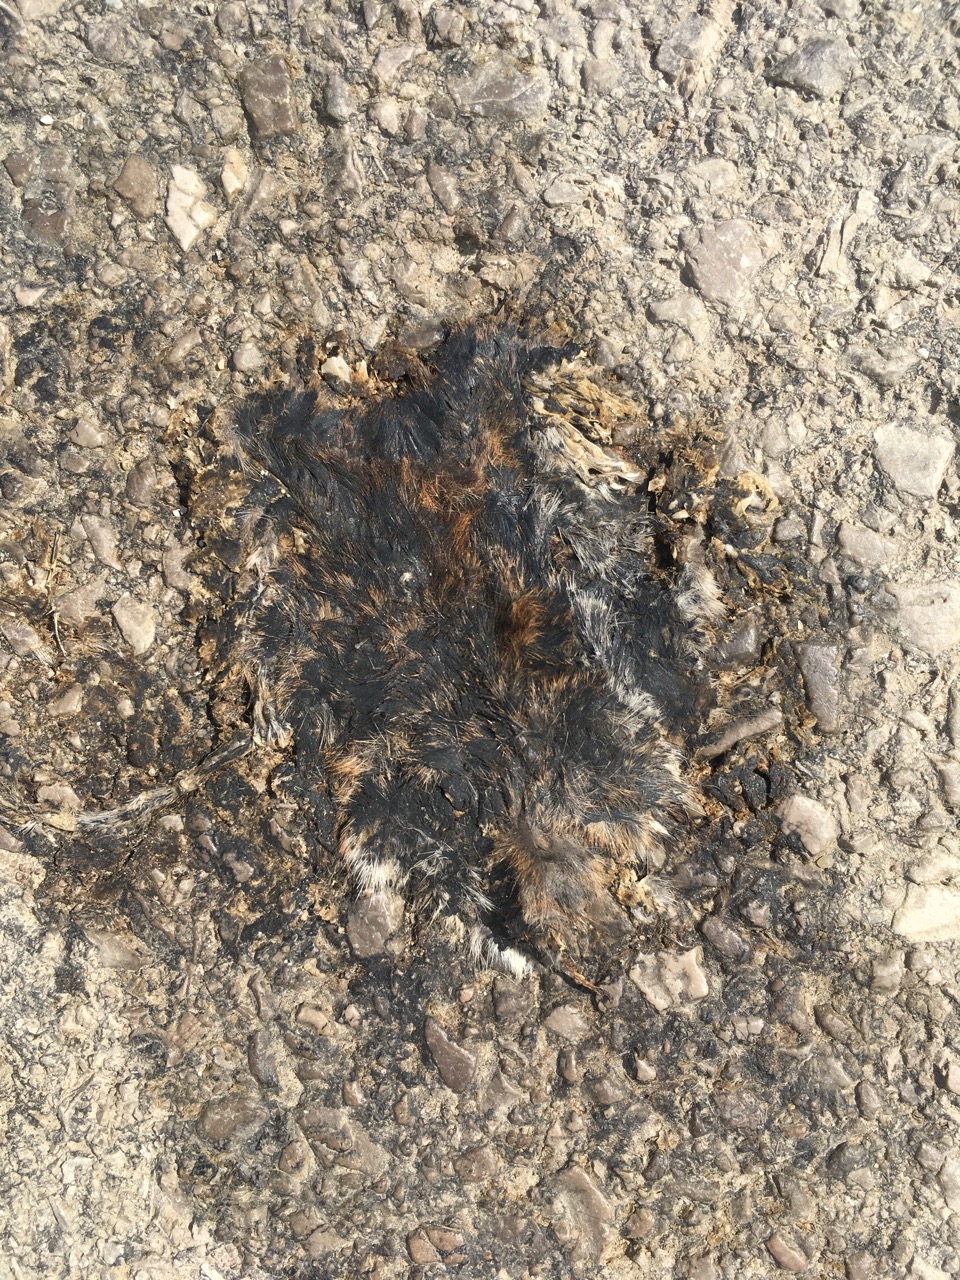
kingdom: Animalia
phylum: Chordata
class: Mammalia
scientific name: Mammalia
